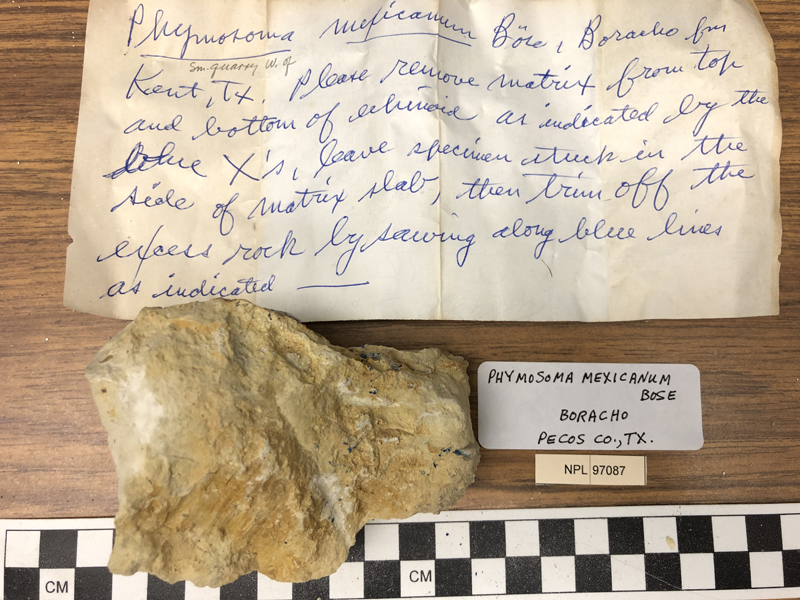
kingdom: Animalia
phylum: Echinodermata
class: Echinoidea
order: Phymosomatoida
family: Phymosomatidae
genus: Phymosoma
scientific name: Phymosoma mexicanum
